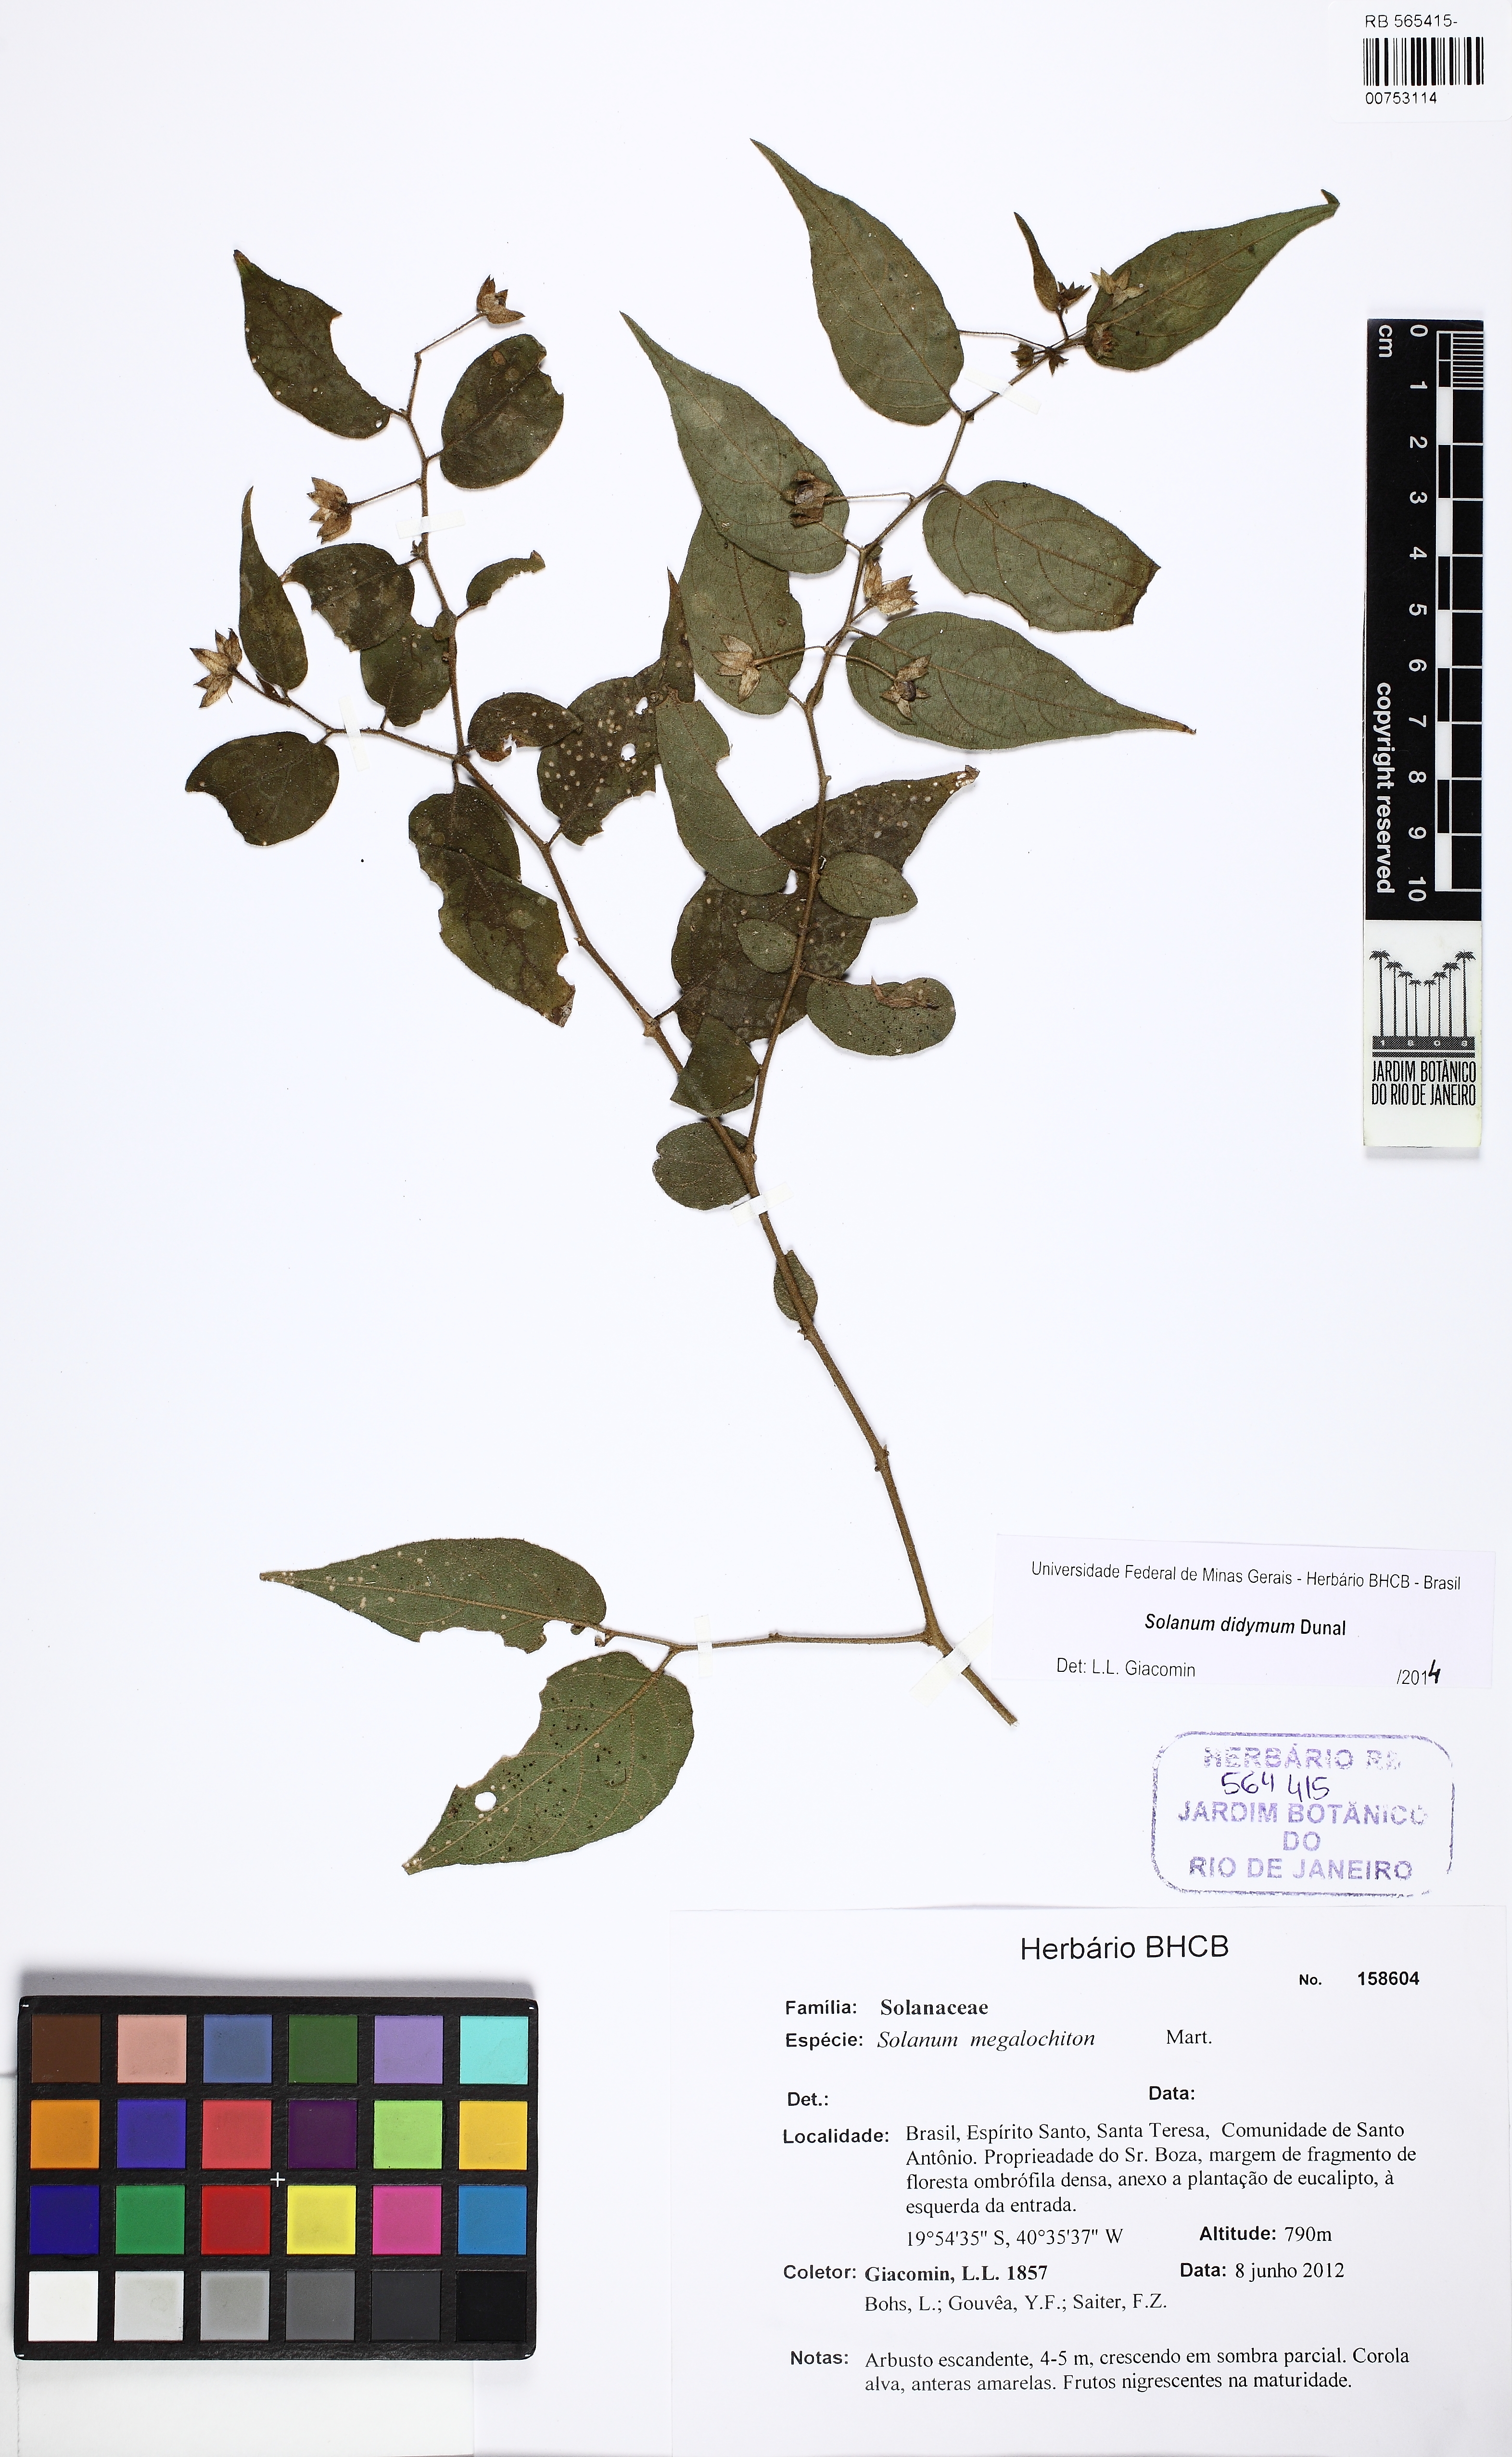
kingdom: Plantae
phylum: Tracheophyta
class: Magnoliopsida
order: Solanales
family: Solanaceae
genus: Solanum
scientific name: Solanum didymum
